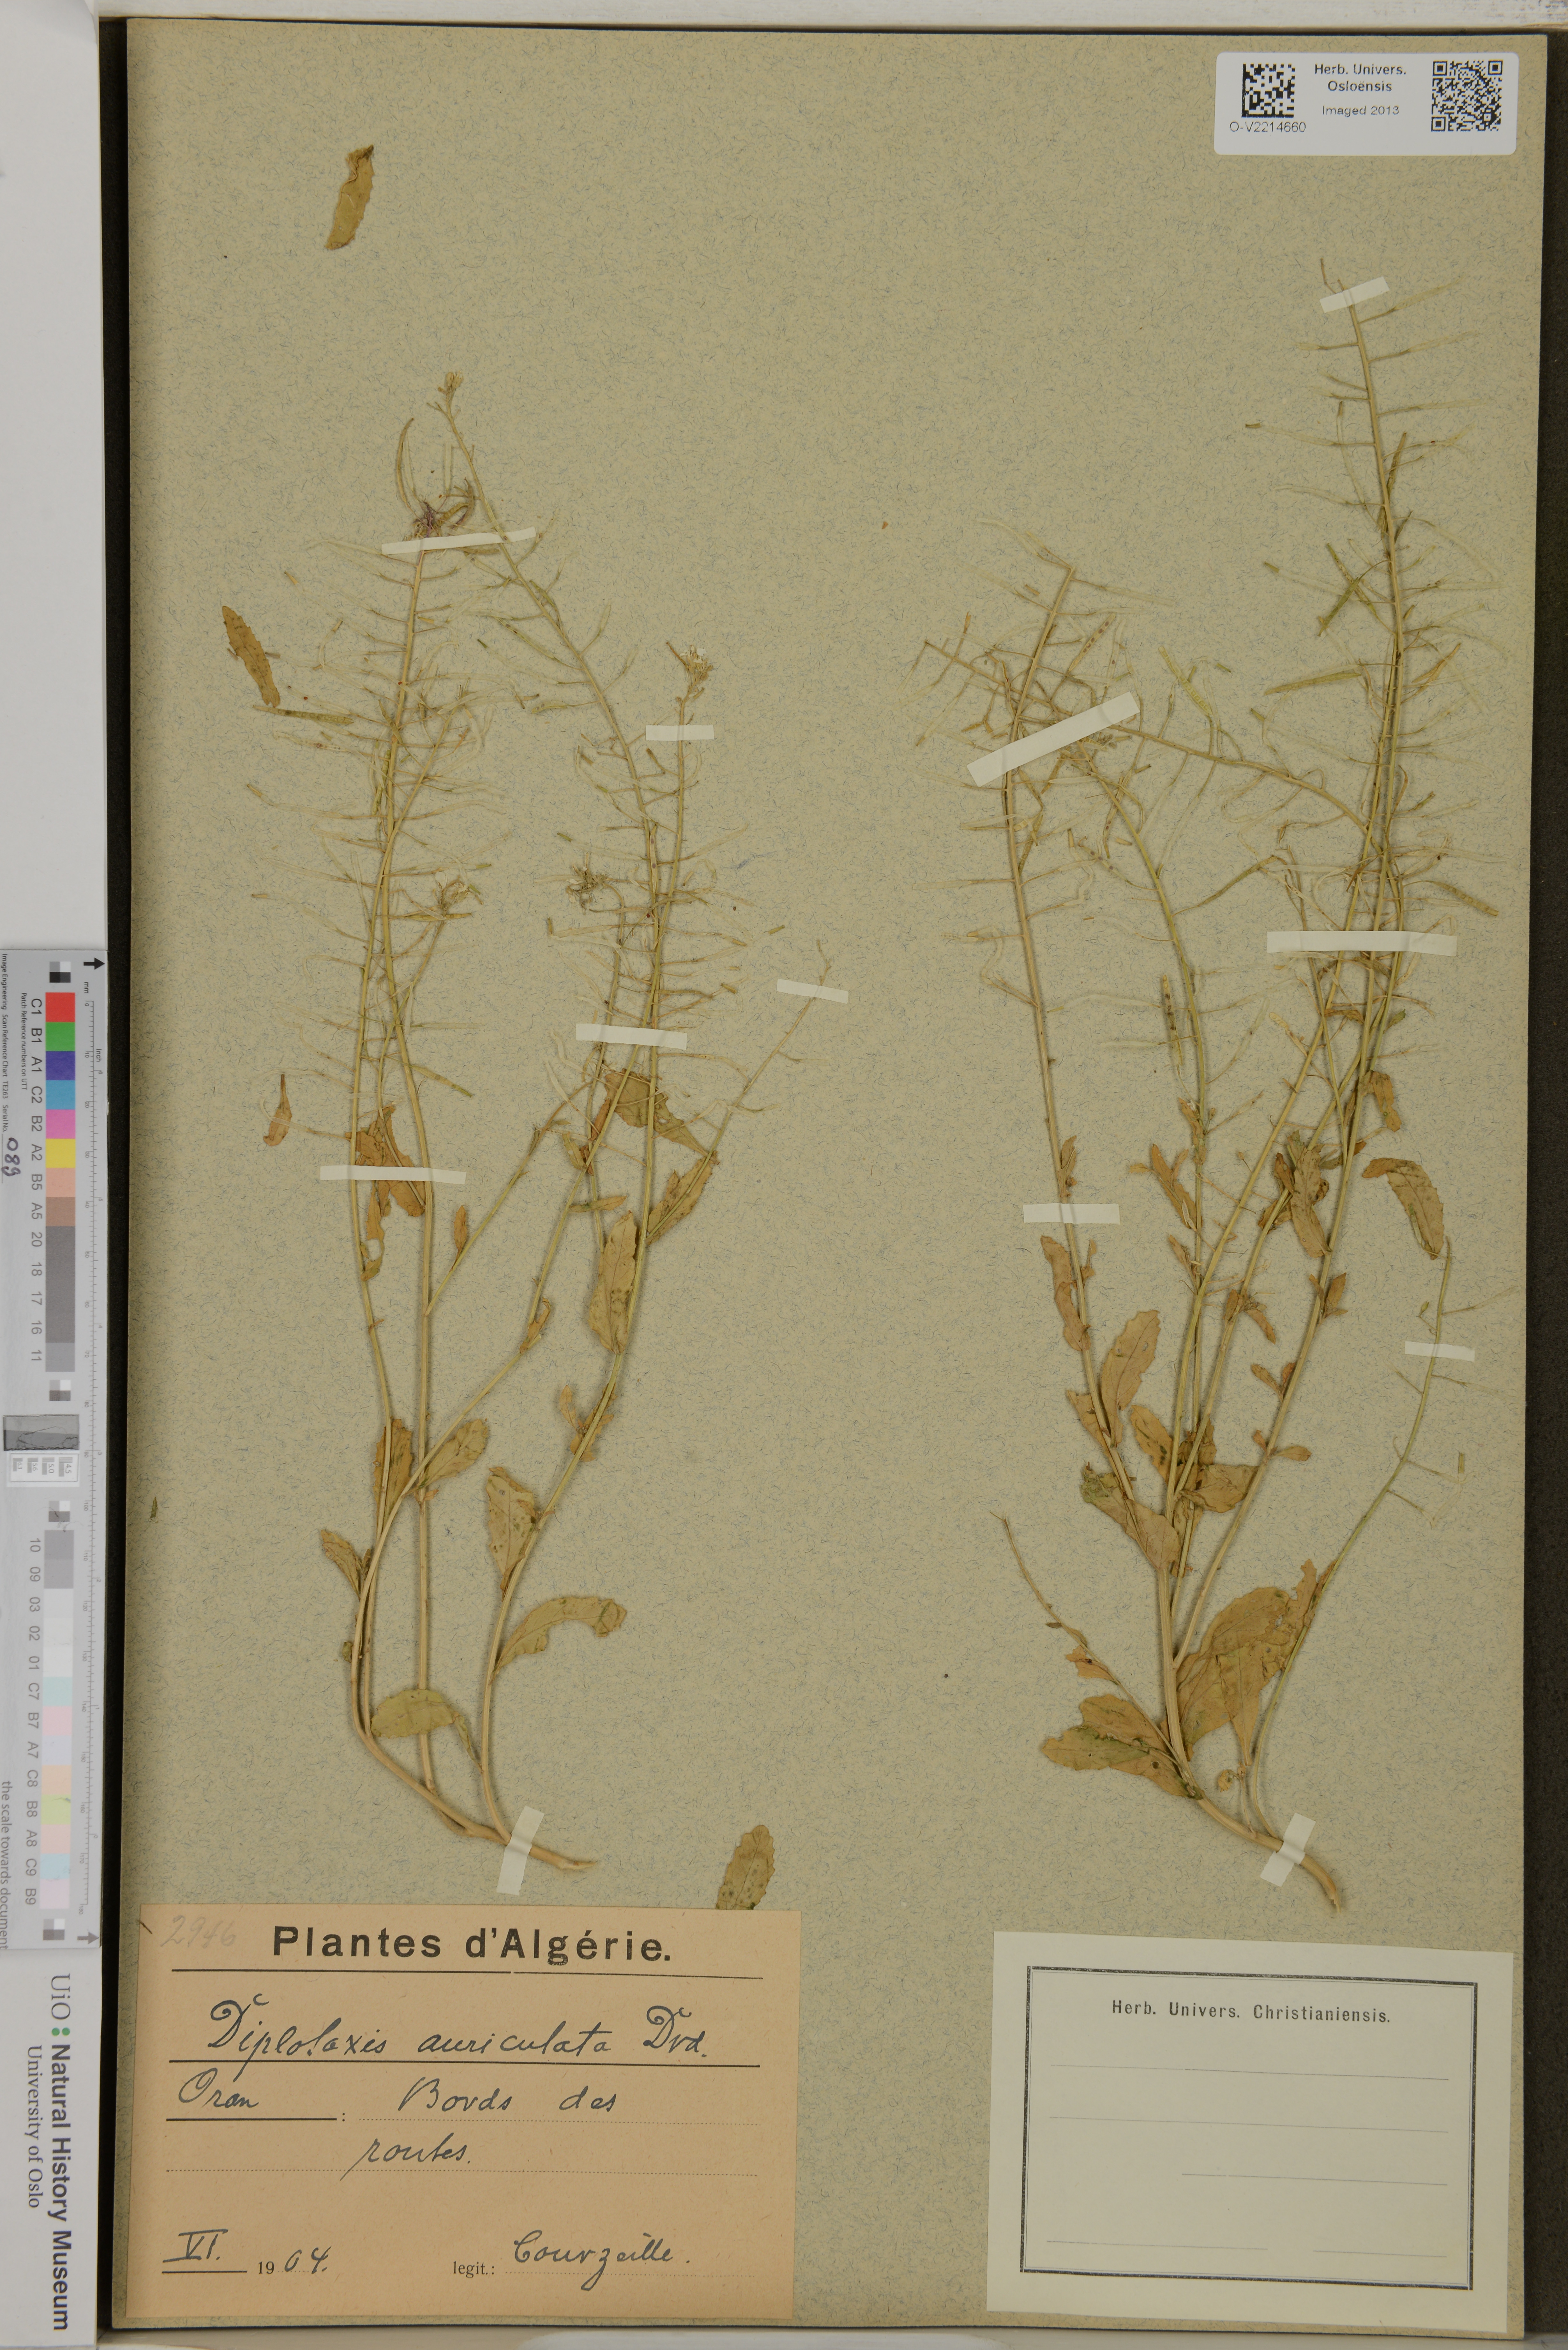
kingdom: Plantae
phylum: Tracheophyta
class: Magnoliopsida
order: Brassicales
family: Brassicaceae
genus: Diplotaxis
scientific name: Diplotaxis tenuisiliqua
